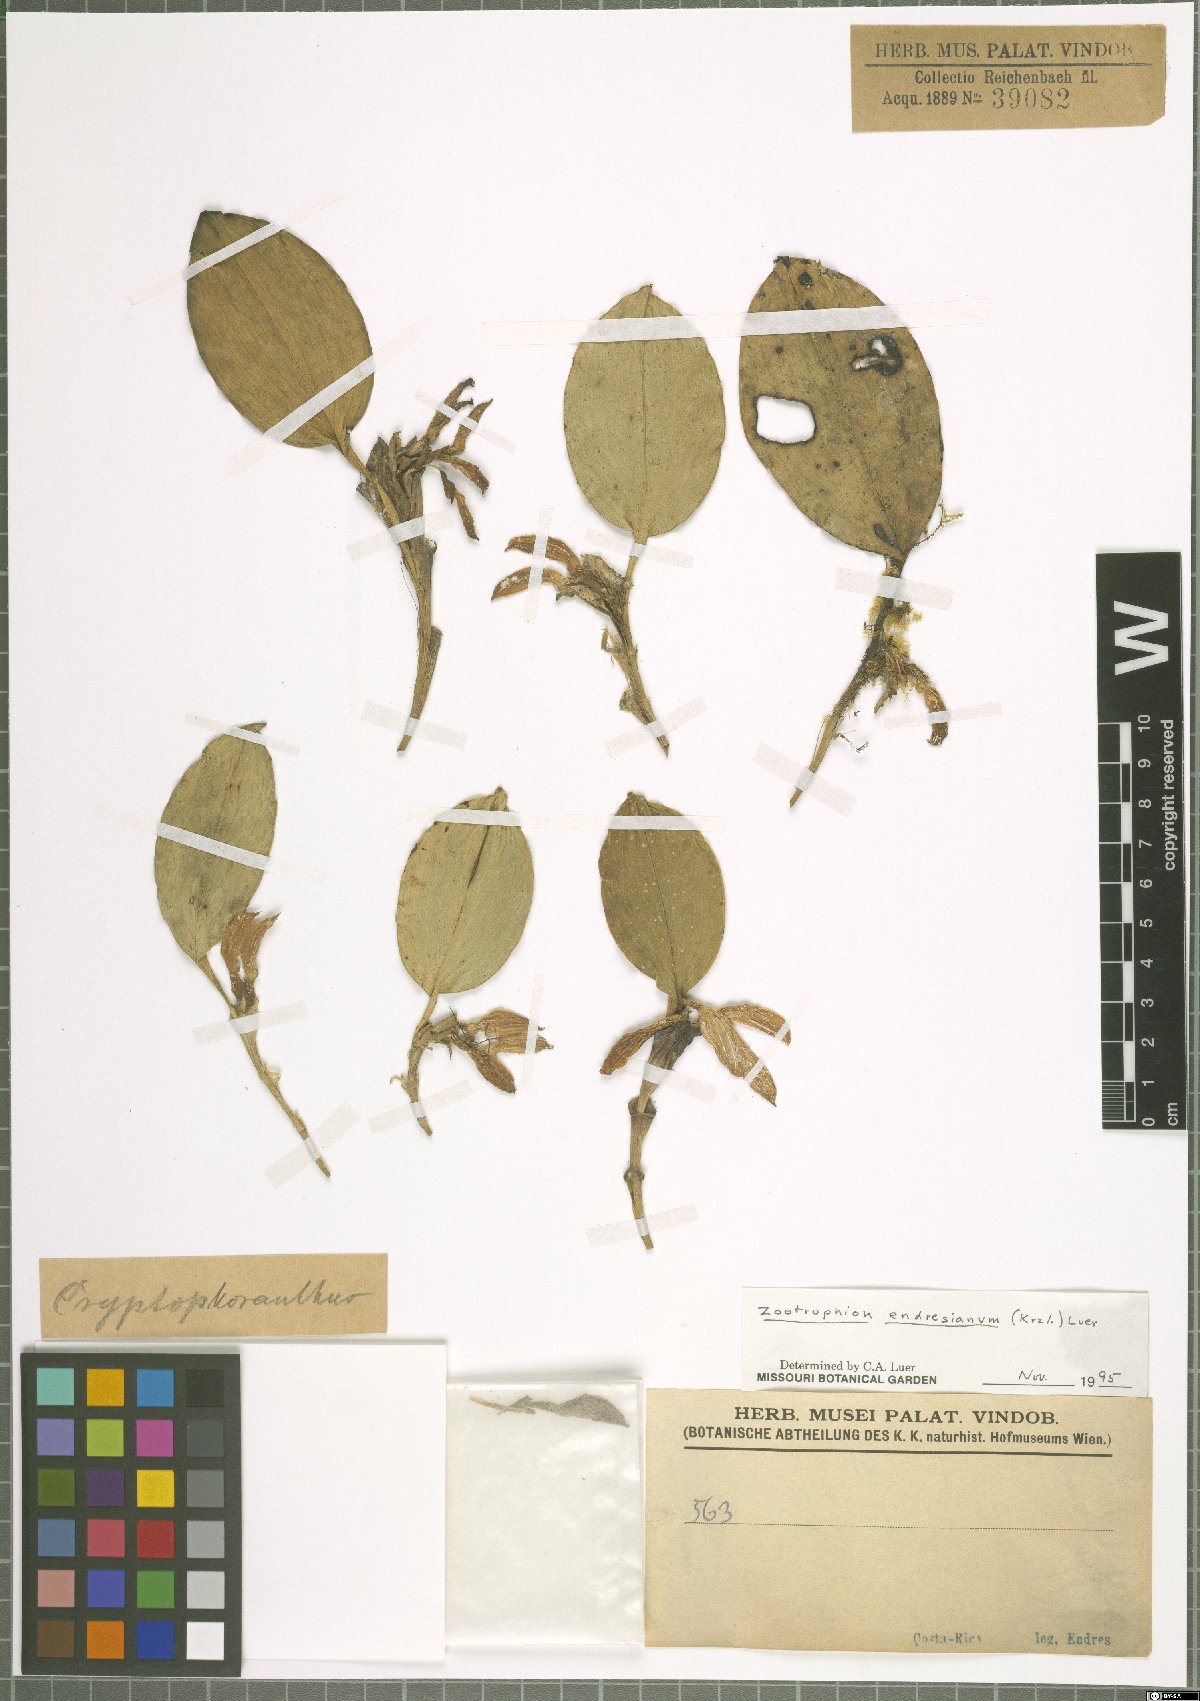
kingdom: Plantae
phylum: Tracheophyta
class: Liliopsida
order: Asparagales
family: Orchidaceae
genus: Zootrophion
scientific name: Zootrophion endresianum
